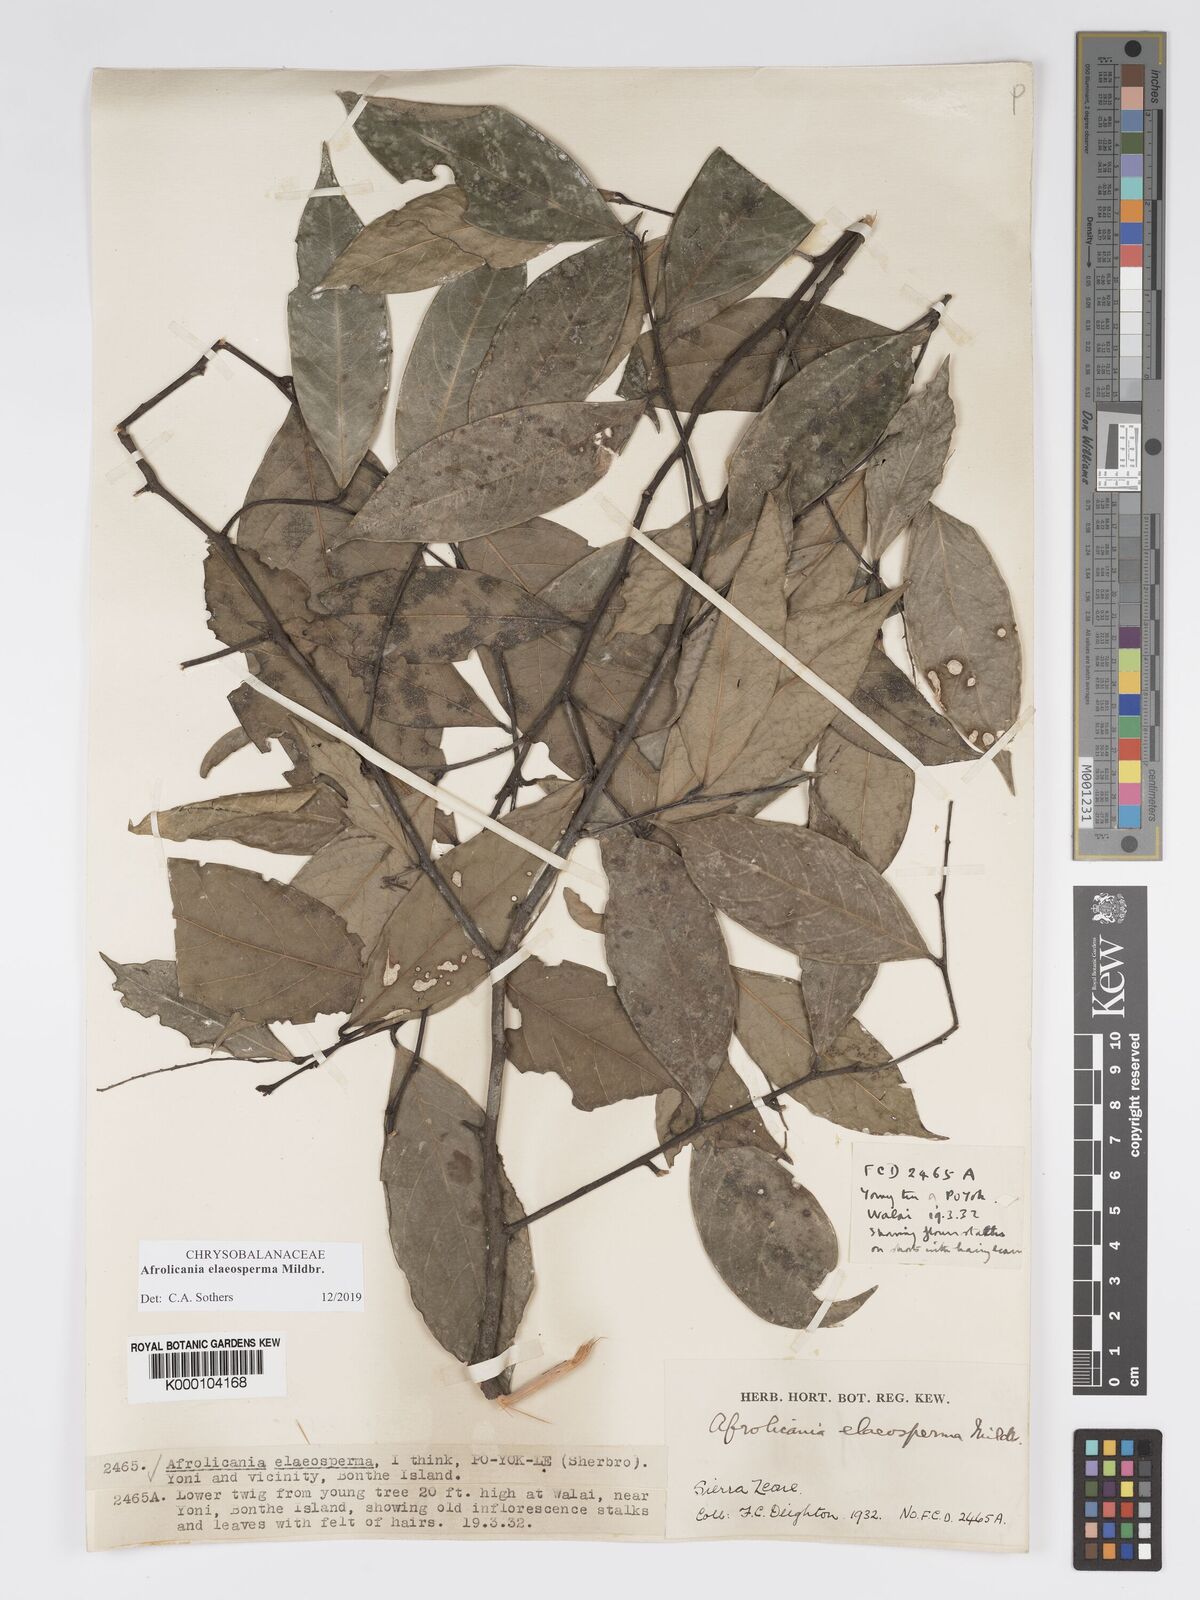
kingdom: Plantae
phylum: Tracheophyta
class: Magnoliopsida
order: Malpighiales
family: Chrysobalanaceae
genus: Afrolicania
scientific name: Afrolicania elaeosperma
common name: Nikko
